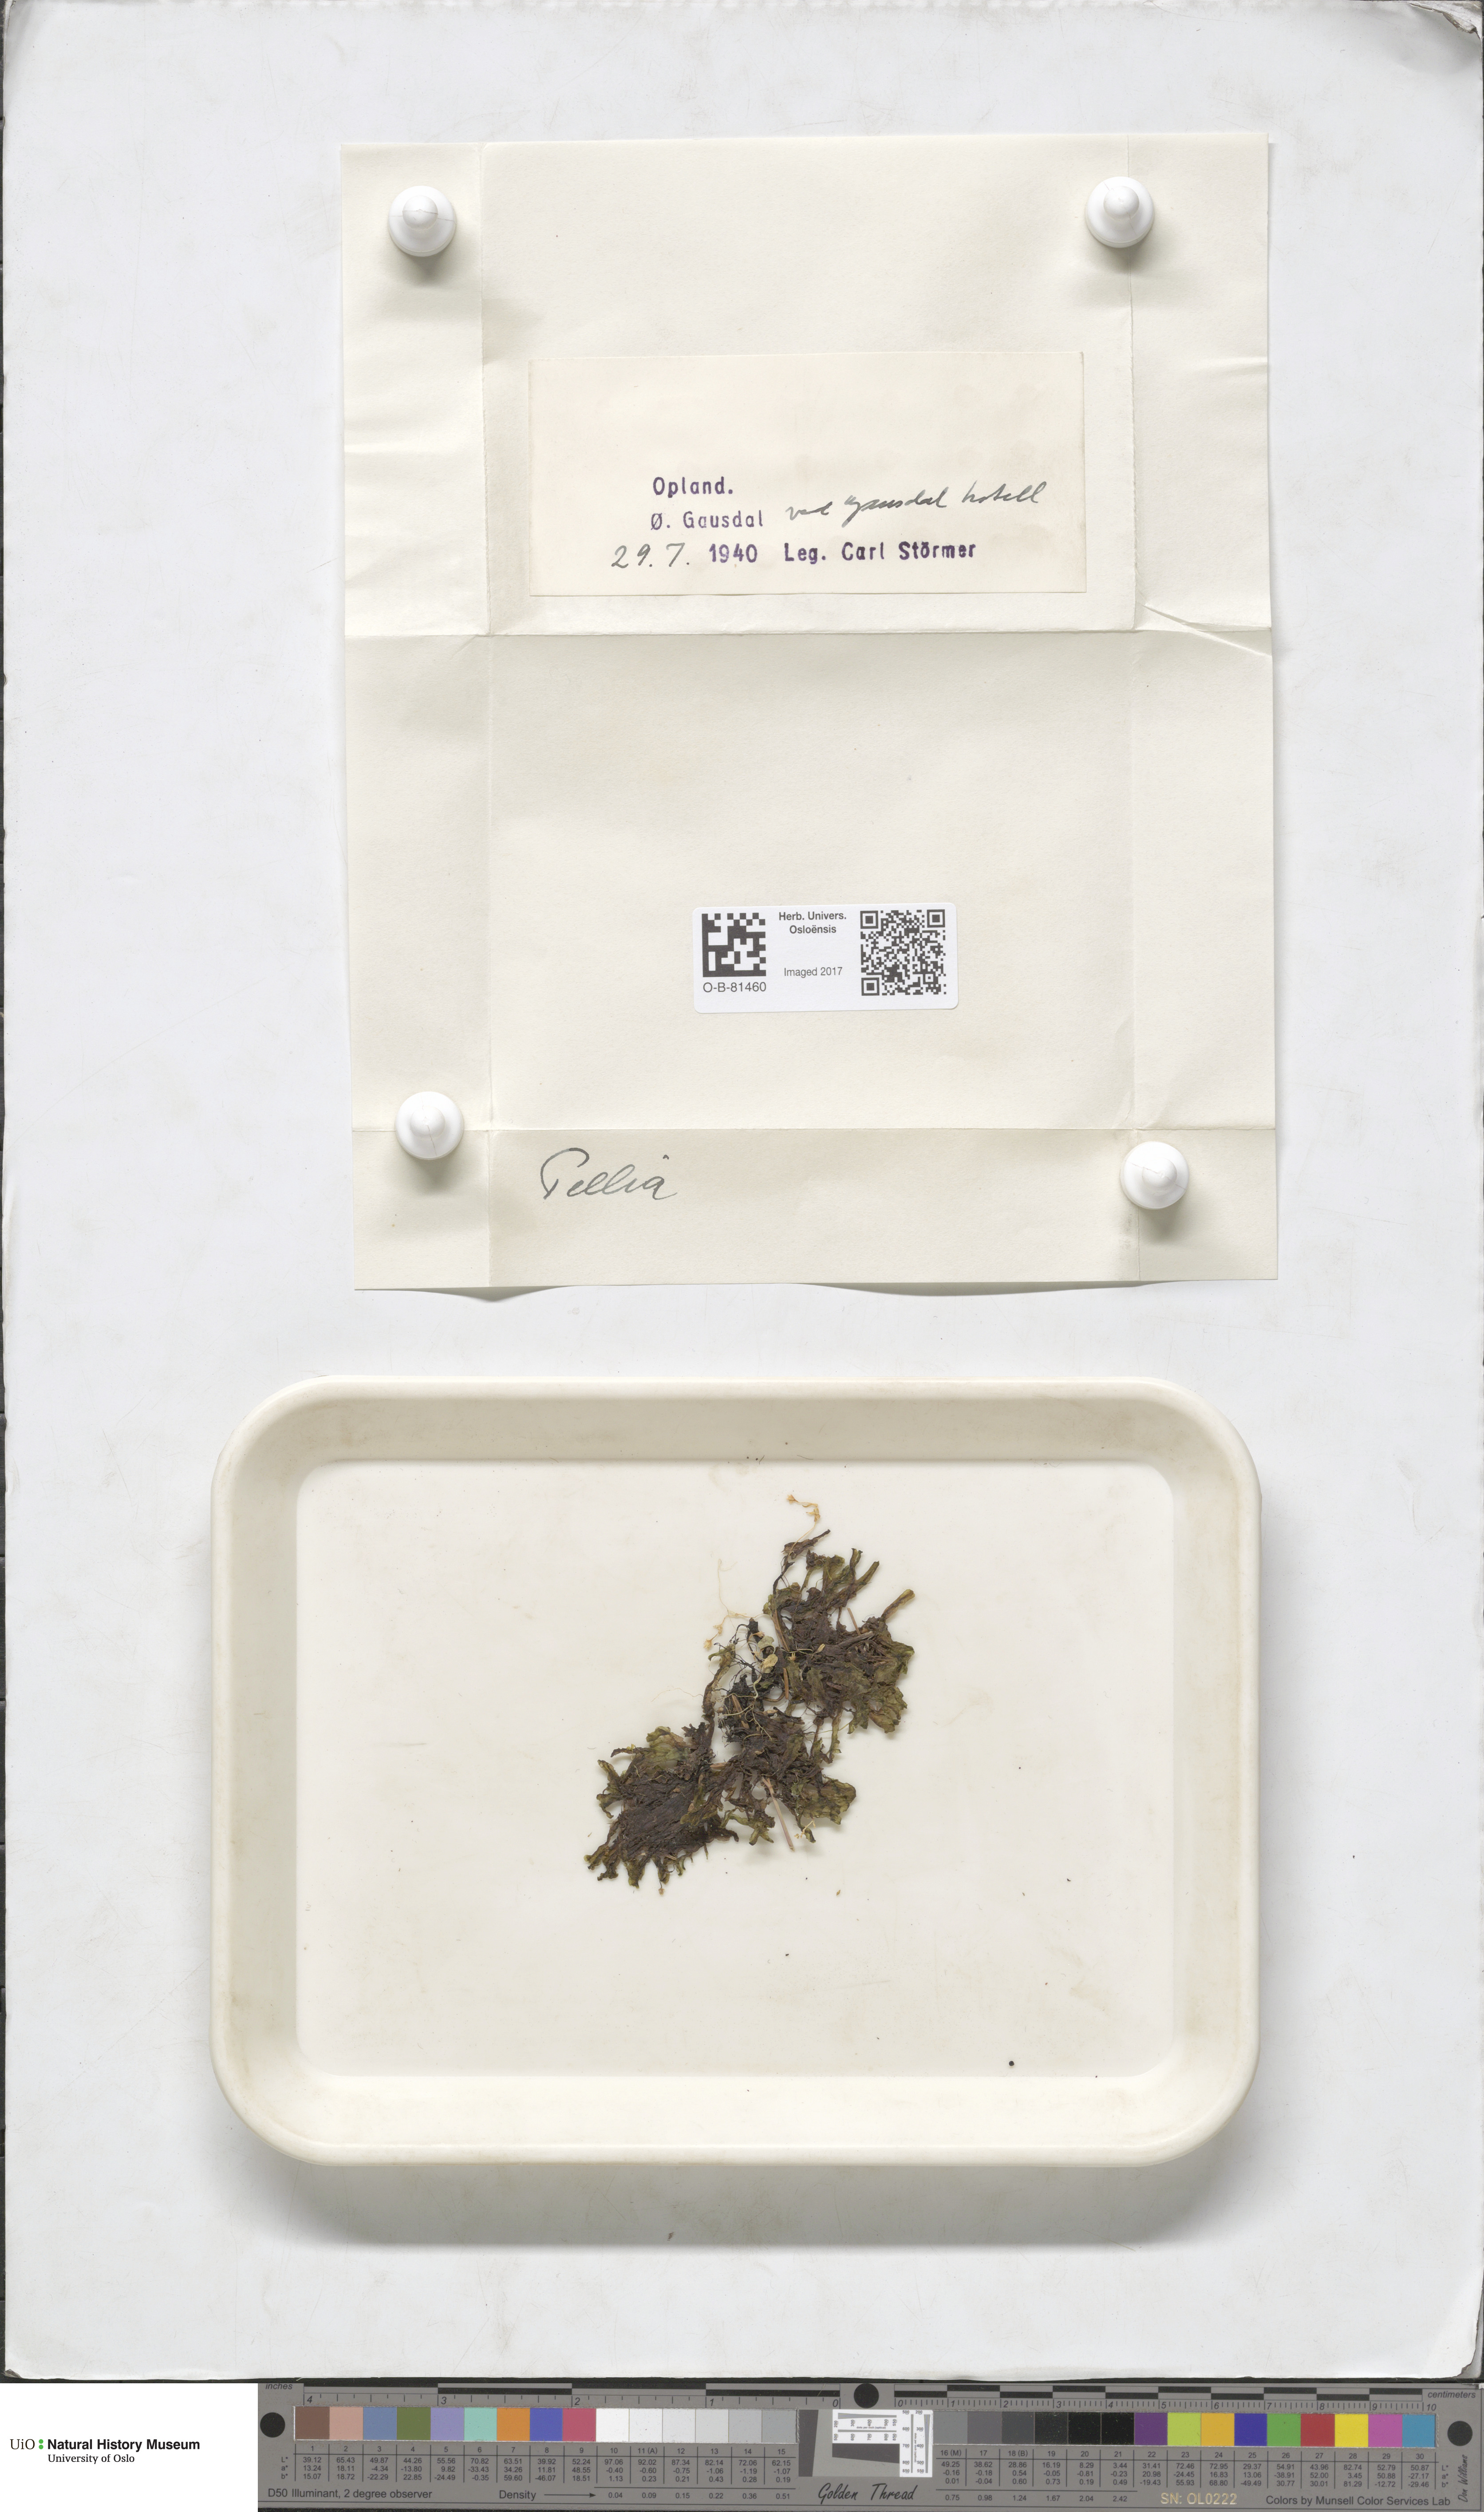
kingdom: Plantae
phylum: Marchantiophyta
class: Jungermanniopsida
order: Pelliales
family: Pelliaceae
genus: Pellia
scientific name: Pellia
